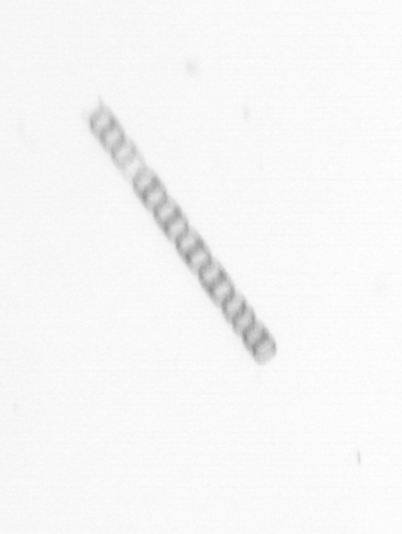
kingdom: Chromista
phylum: Ochrophyta
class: Bacillariophyceae
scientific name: Bacillariophyceae
